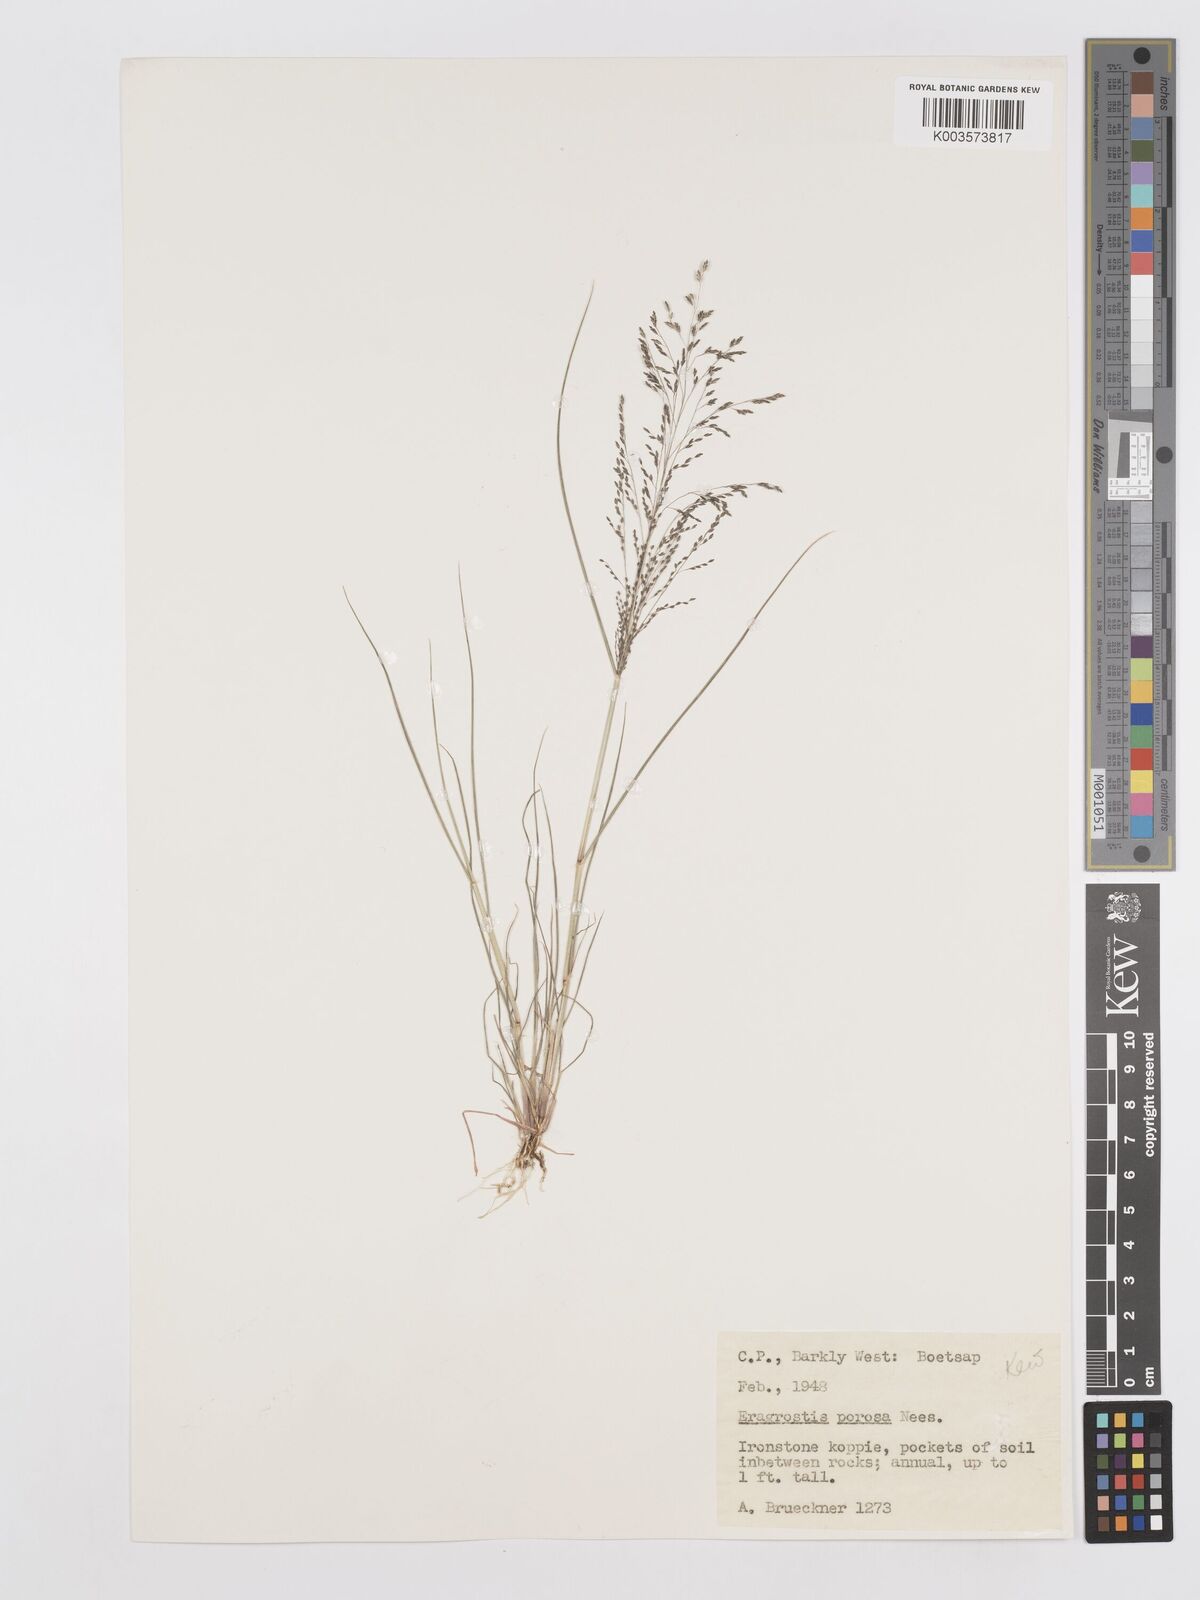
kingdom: Plantae
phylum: Tracheophyta
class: Liliopsida
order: Poales
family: Poaceae
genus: Eragrostis
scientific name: Eragrostis porosa
